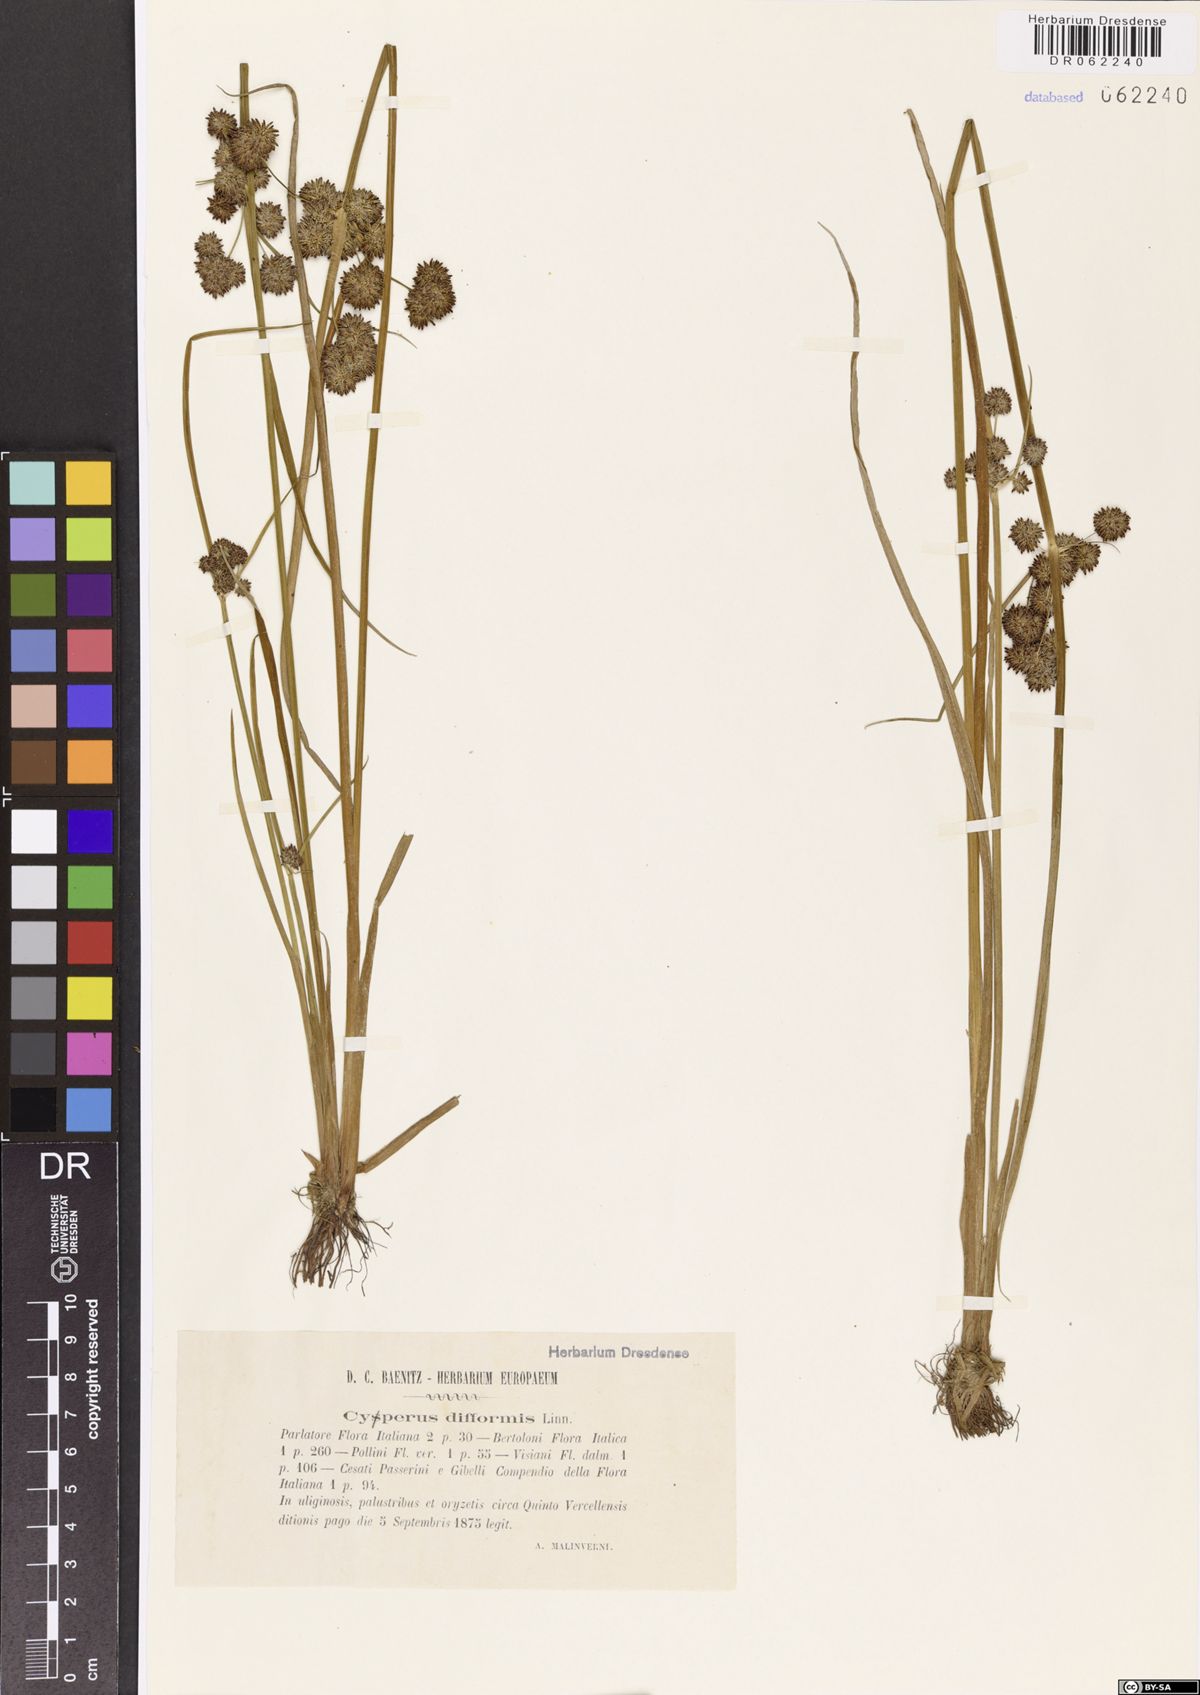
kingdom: Plantae
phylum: Tracheophyta
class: Liliopsida
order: Poales
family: Cyperaceae
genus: Cyperus
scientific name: Cyperus difformis
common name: Variable flatsedge
